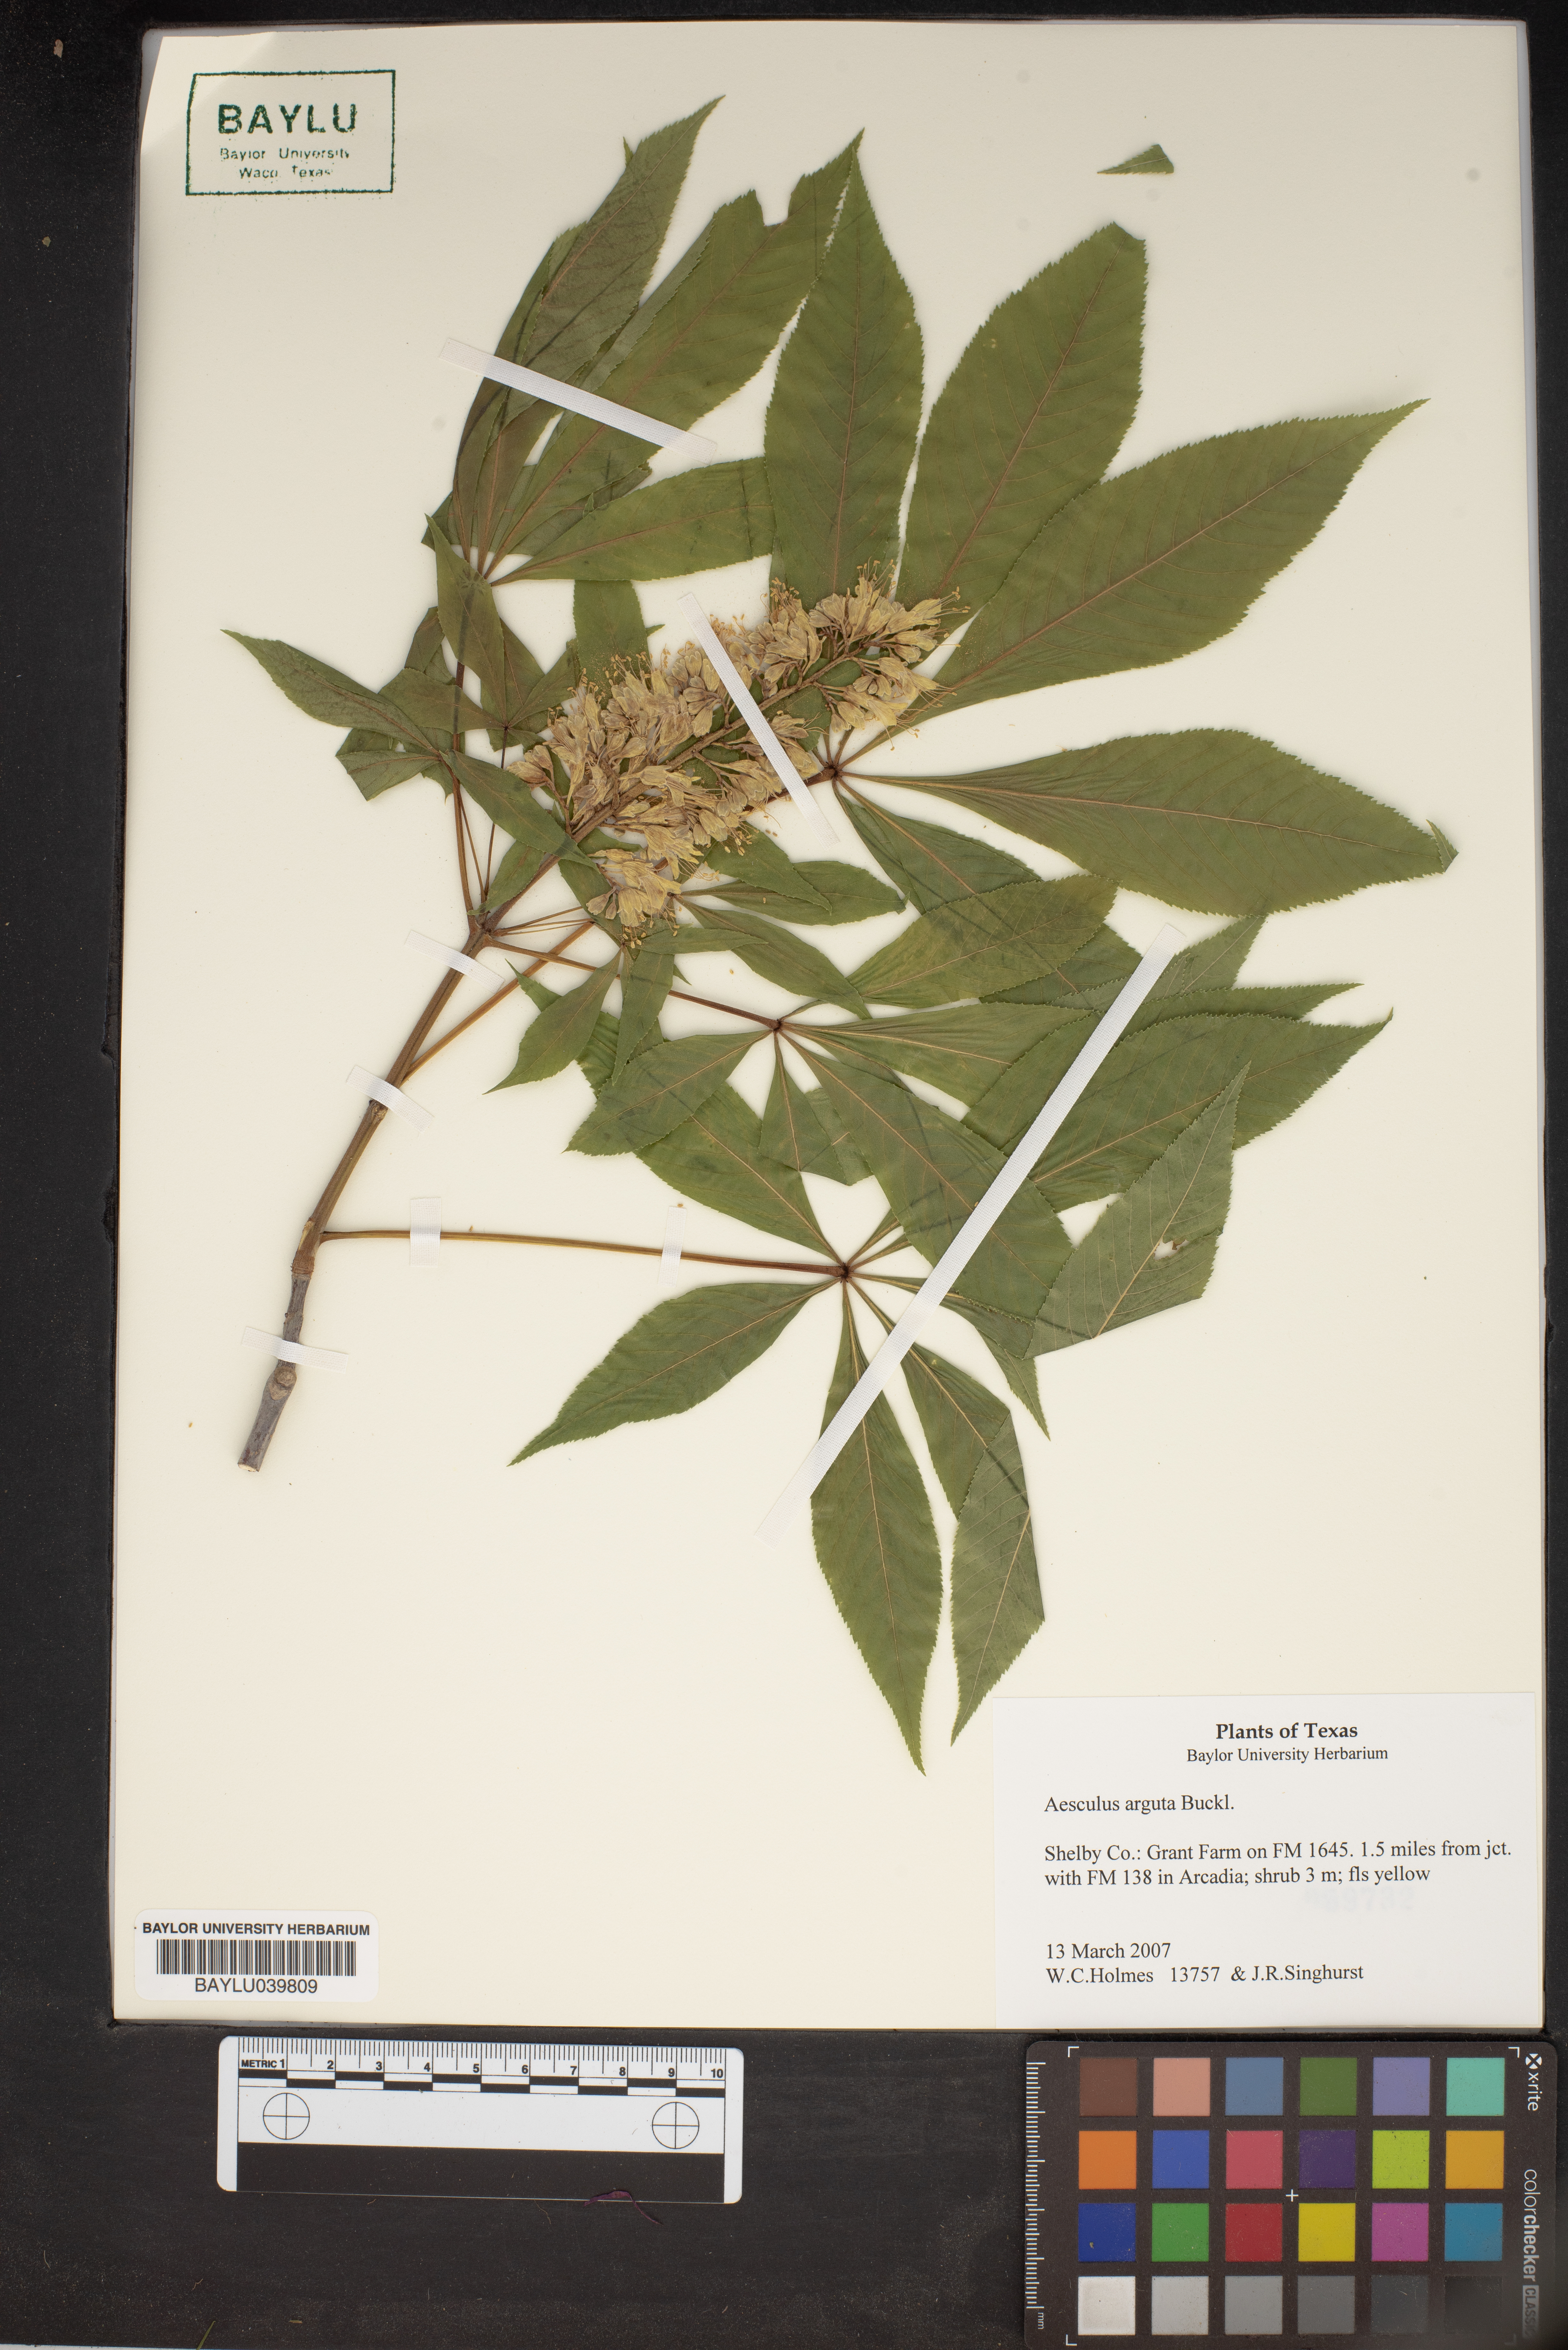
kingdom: Plantae
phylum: Tracheophyta
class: Magnoliopsida
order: Sapindales
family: Sapindaceae
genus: Aesculus
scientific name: Aesculus glabra
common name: Ohio buckeye
